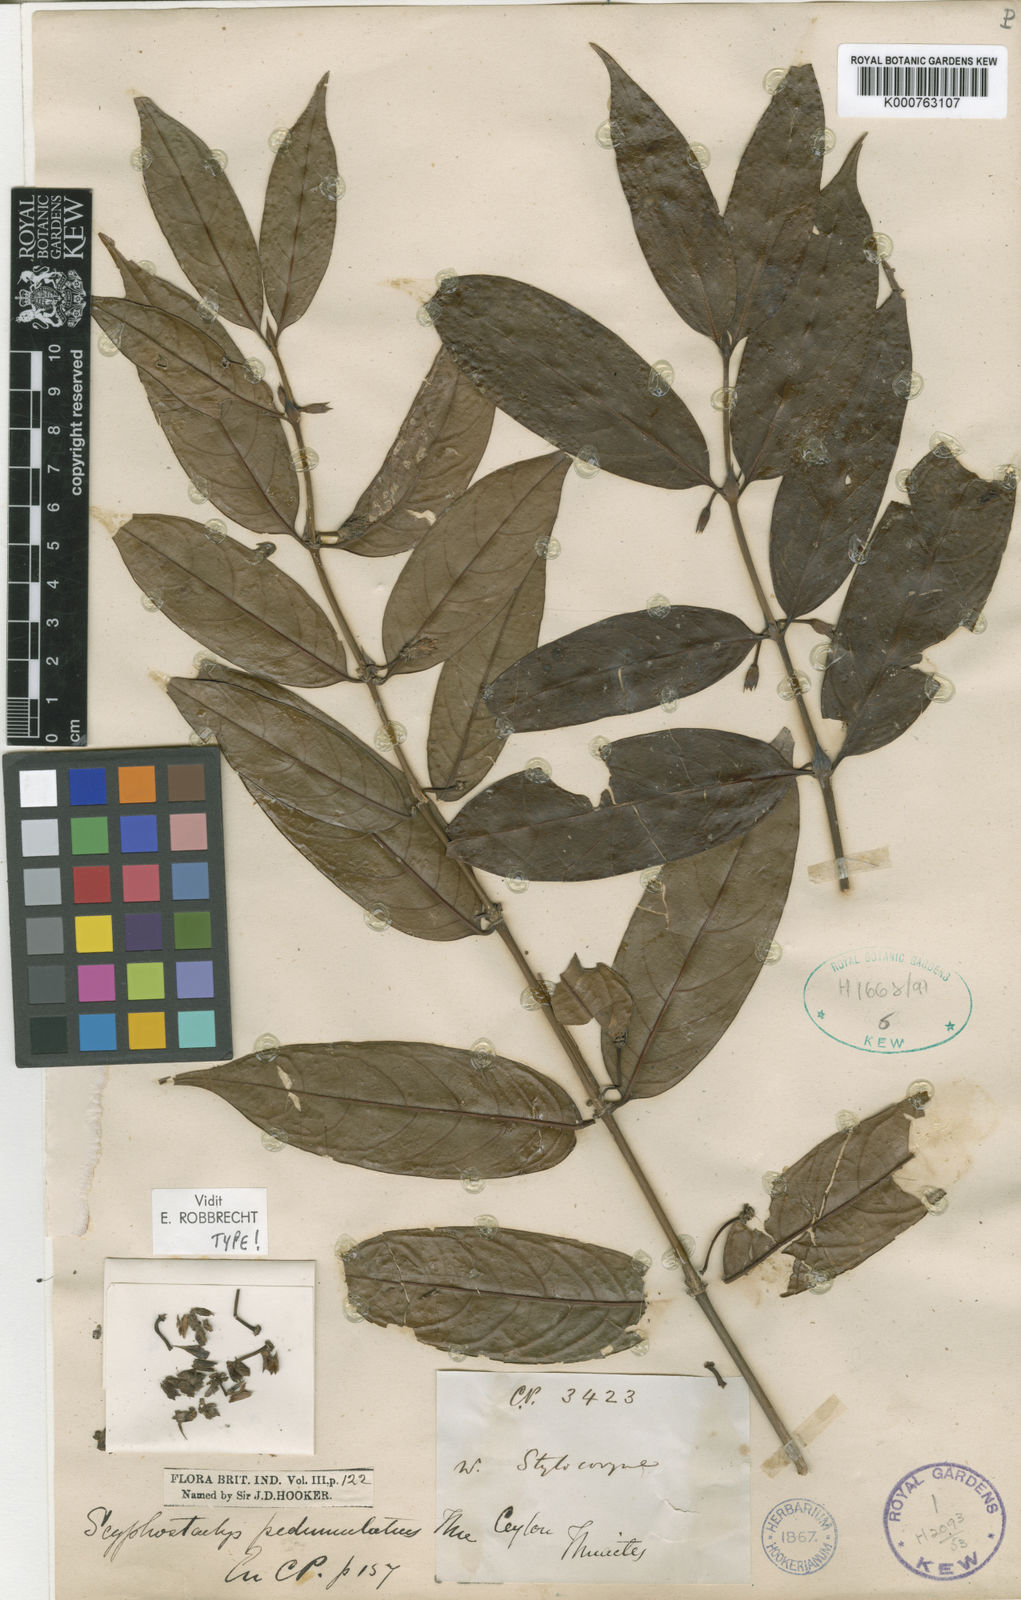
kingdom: Plantae
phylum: Tracheophyta
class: Magnoliopsida
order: Gentianales
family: Rubiaceae
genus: Scyphostachys
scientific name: Scyphostachys pedunculatus
